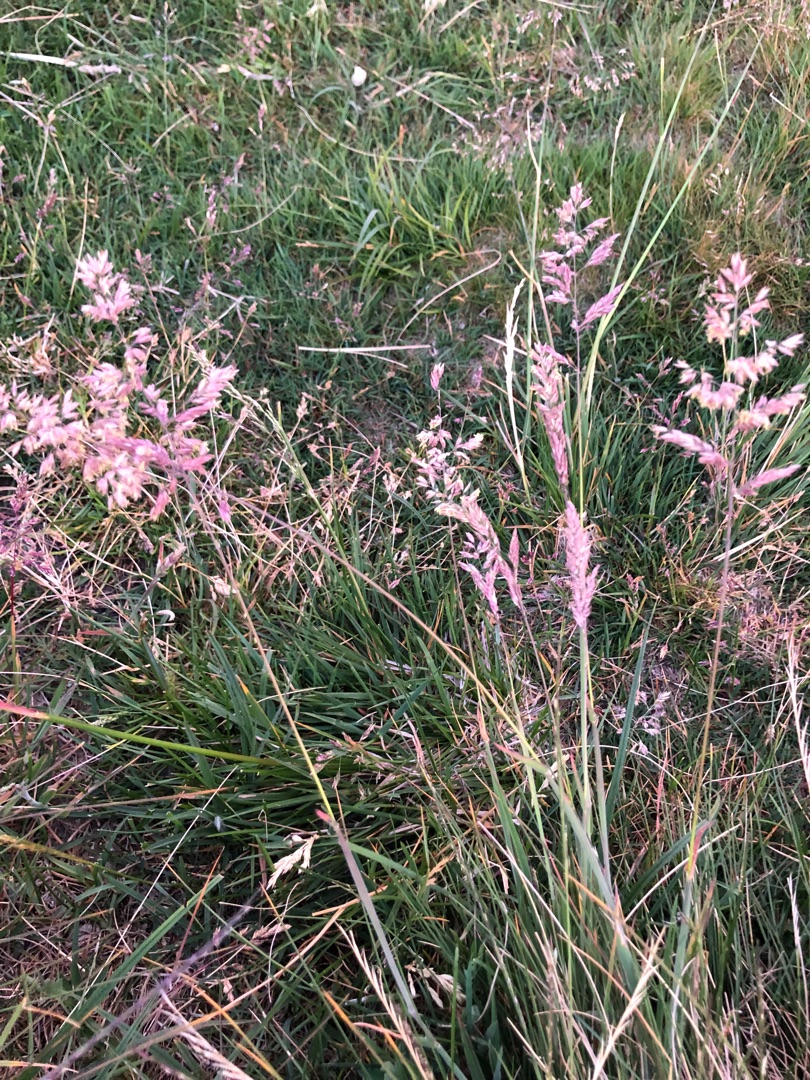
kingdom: Plantae
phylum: Tracheophyta
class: Liliopsida
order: Poales
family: Poaceae
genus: Holcus
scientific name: Holcus lanatus
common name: Fløjlsgræs
